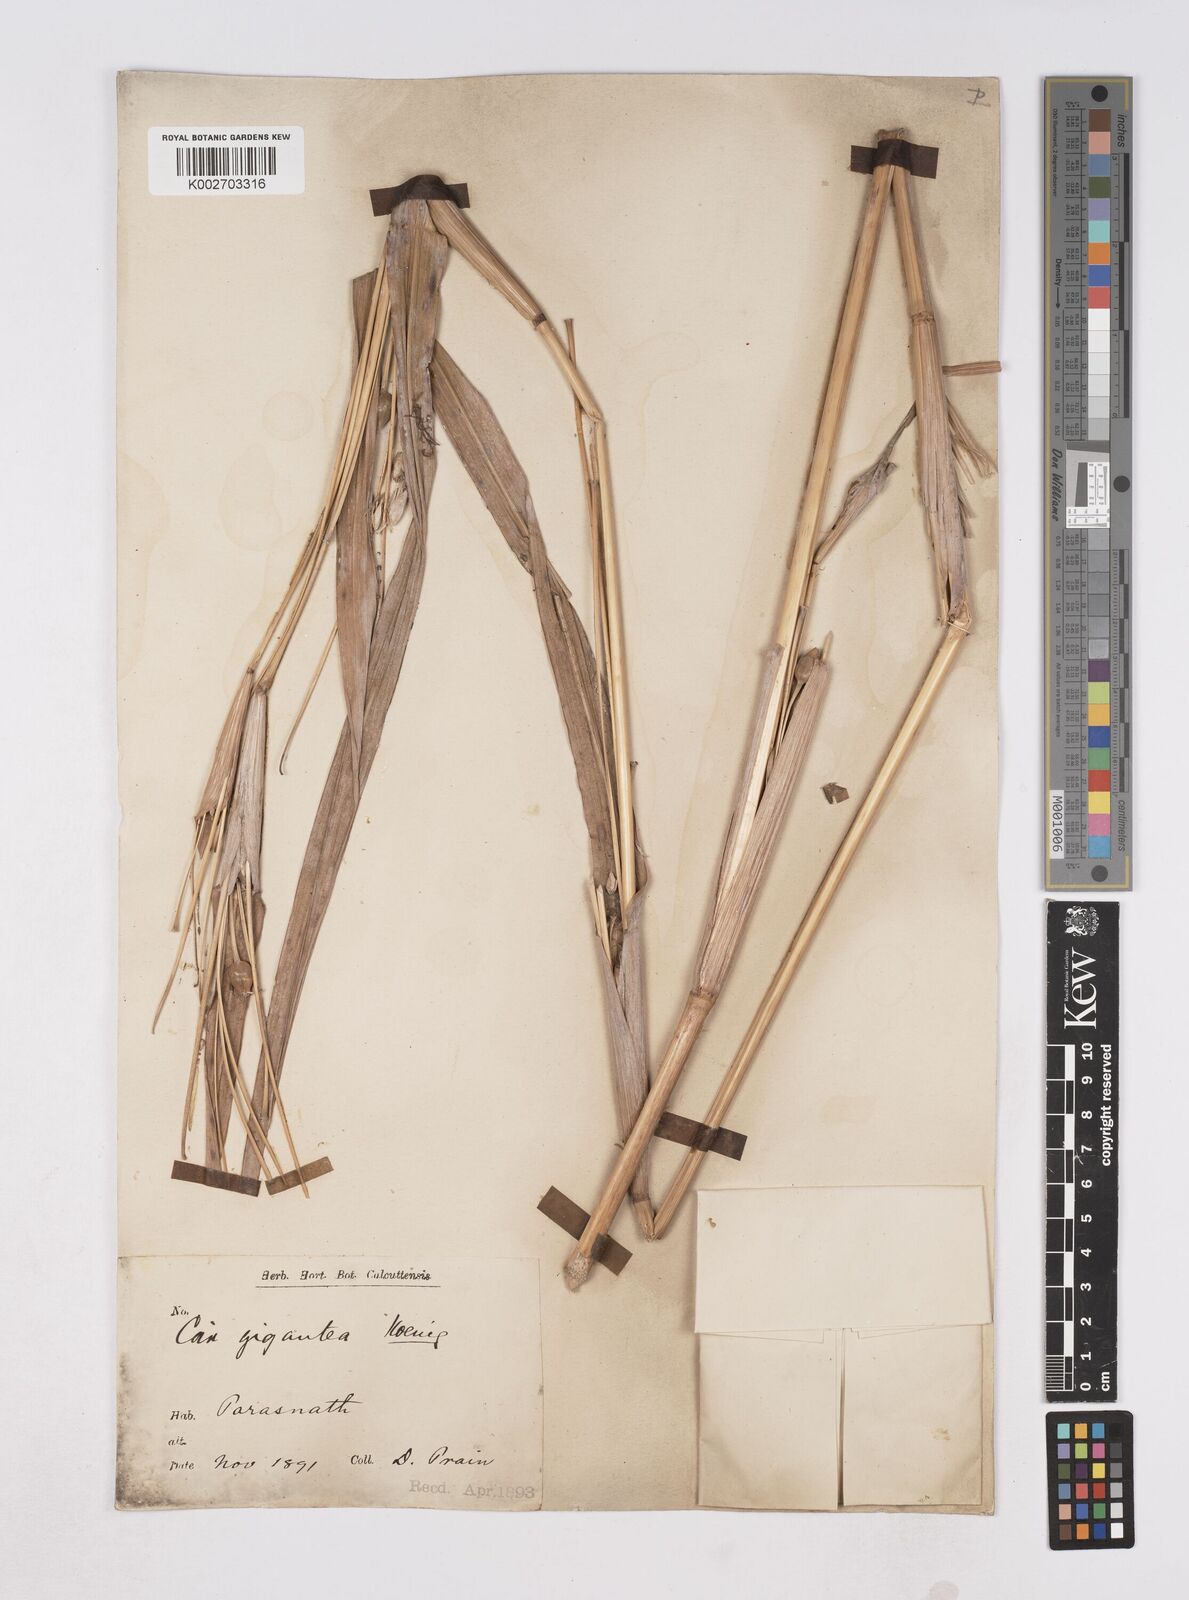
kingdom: Plantae
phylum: Tracheophyta
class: Liliopsida
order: Poales
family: Poaceae
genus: Coix
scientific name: Coix aquatica
